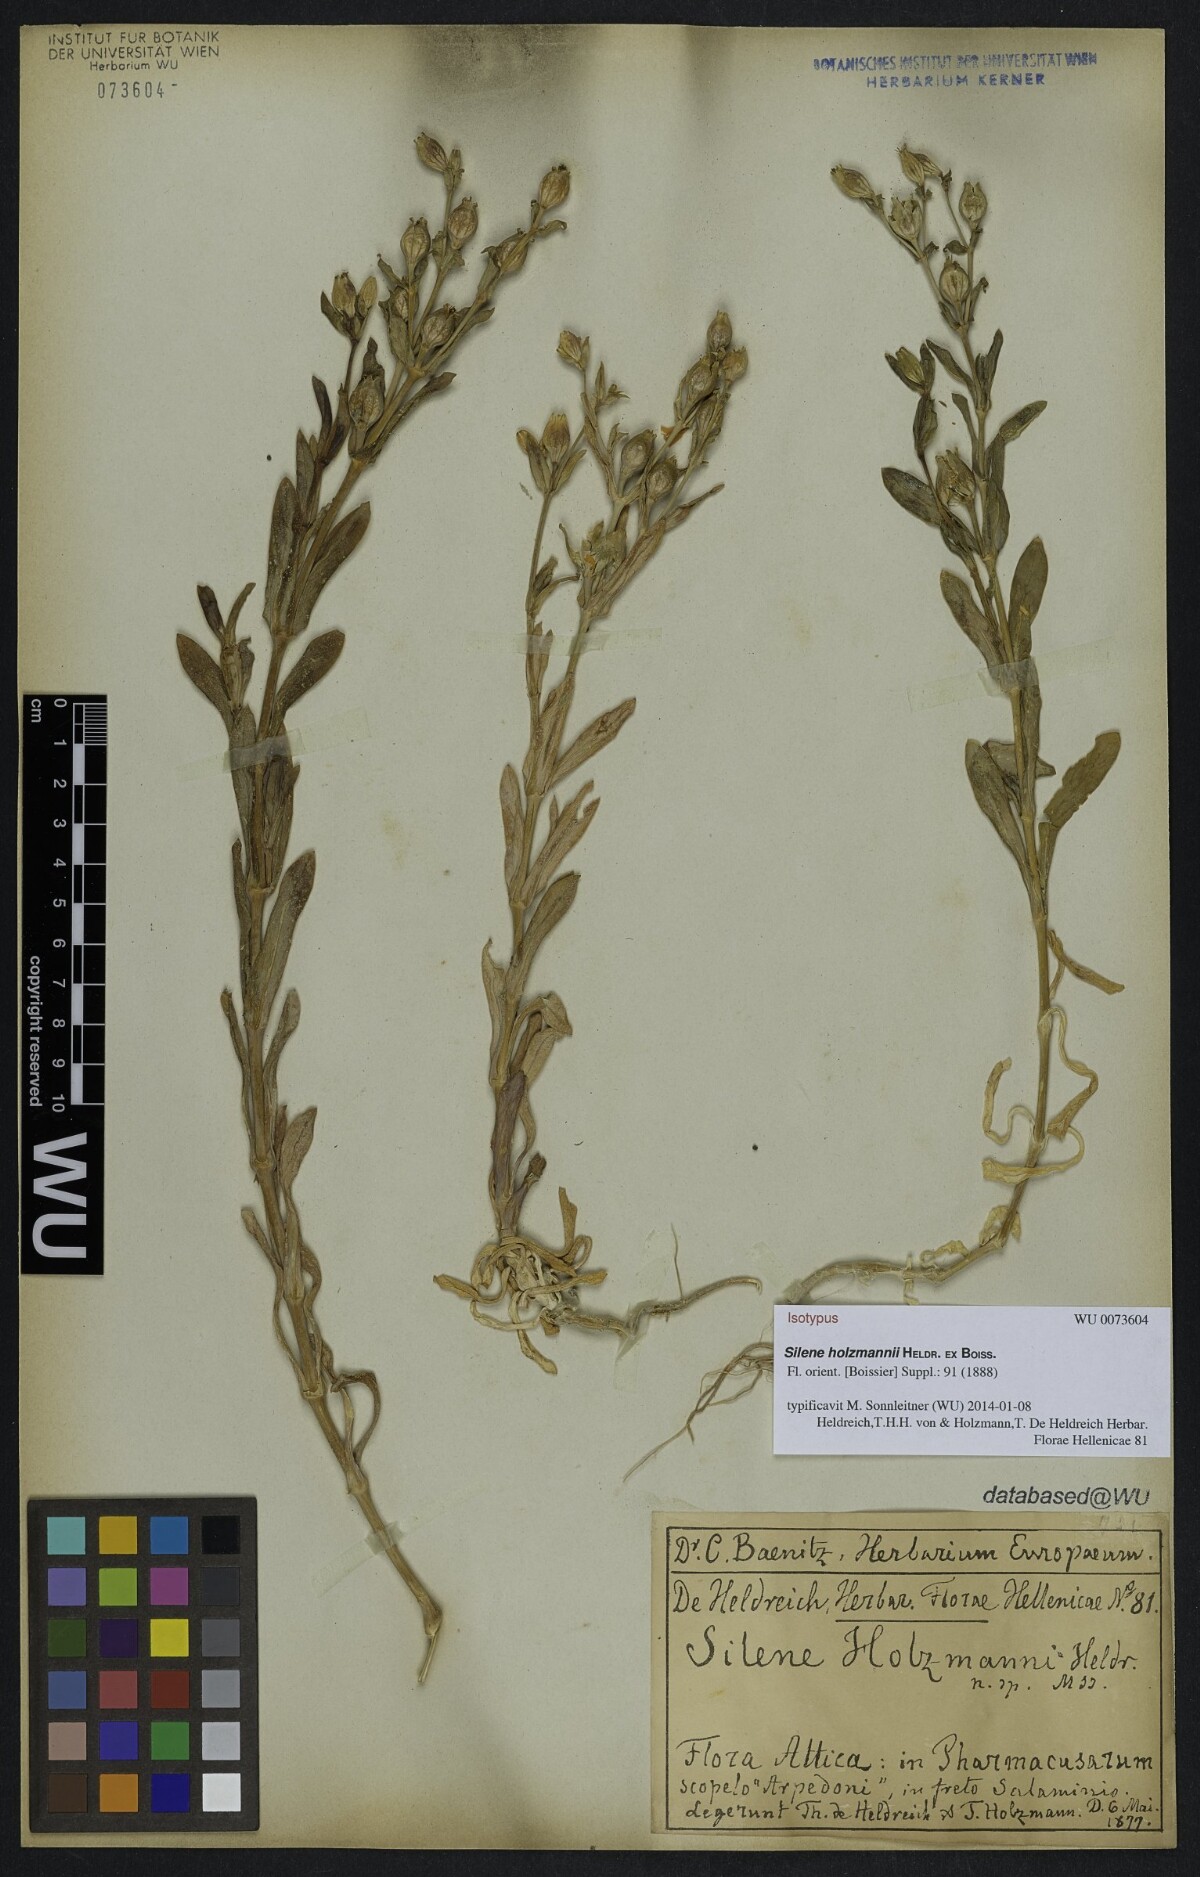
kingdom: Plantae
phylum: Tracheophyta
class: Magnoliopsida
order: Caryophyllales
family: Caryophyllaceae
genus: Silene
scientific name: Silene holzmannii
